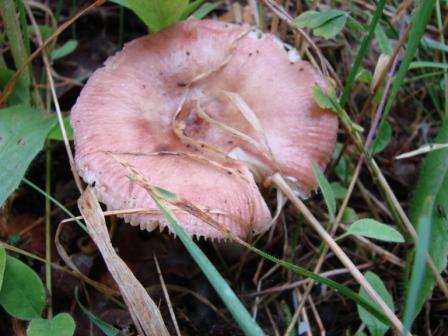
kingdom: Fungi
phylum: Basidiomycota
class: Agaricomycetes
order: Russulales
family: Russulaceae
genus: Russula
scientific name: Russula vesca
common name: spiselig skørhat
